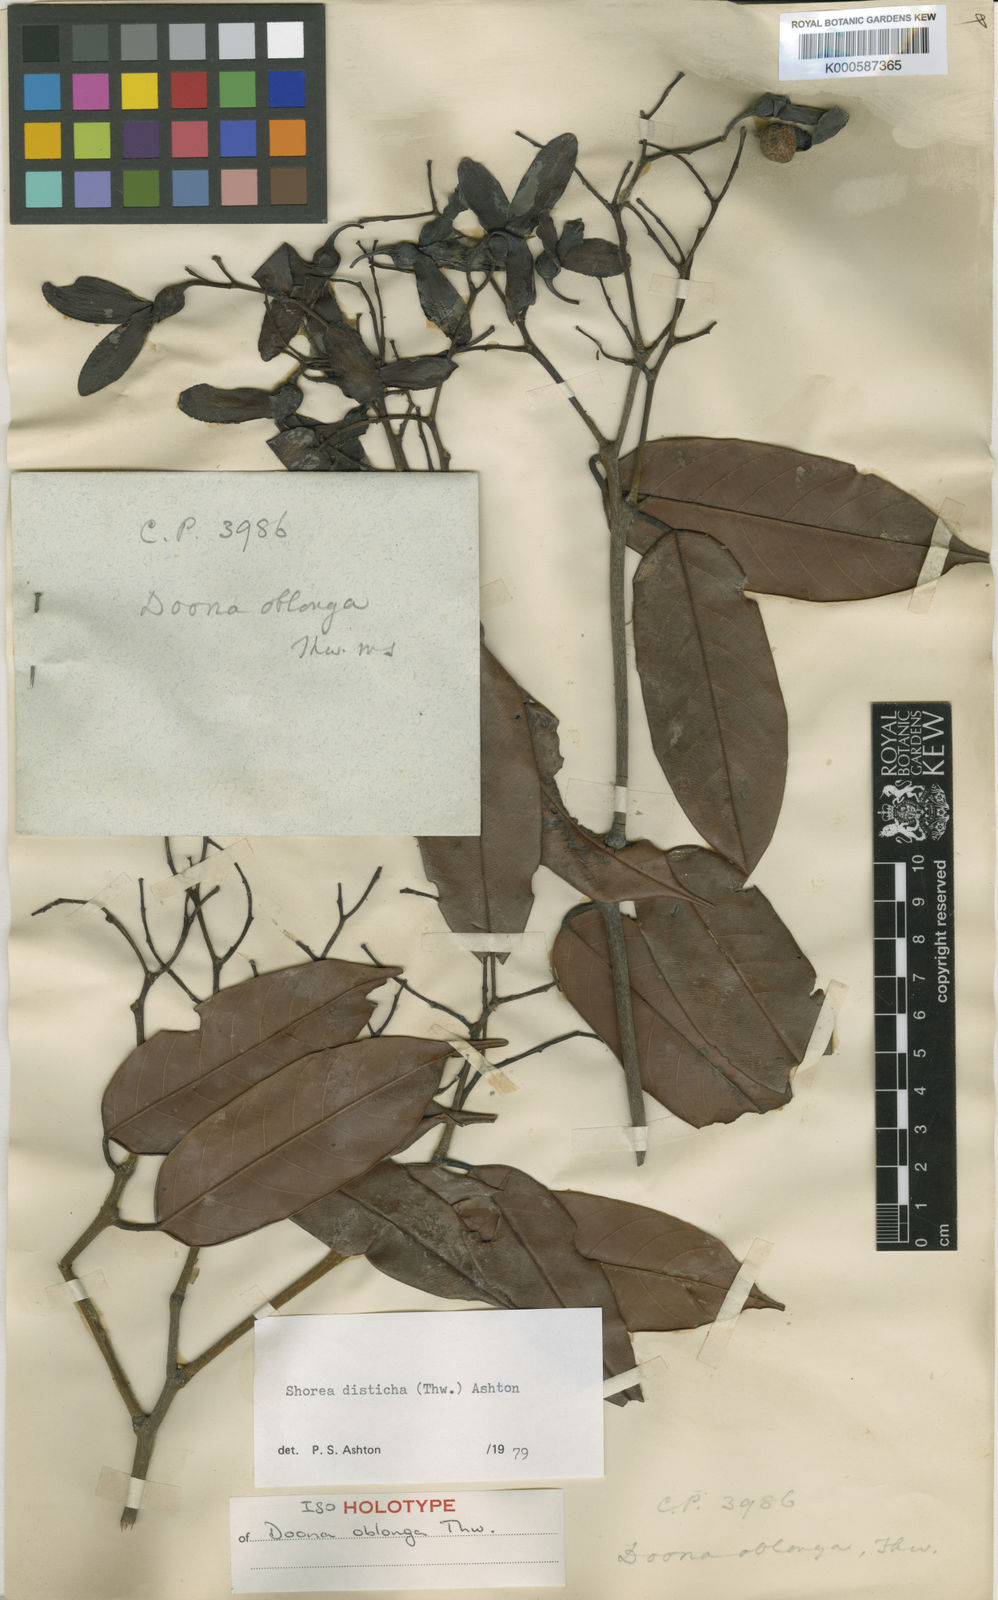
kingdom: Plantae
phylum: Tracheophyta
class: Magnoliopsida
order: Malvales
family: Dipterocarpaceae
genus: Doona
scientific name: Doona disticha
